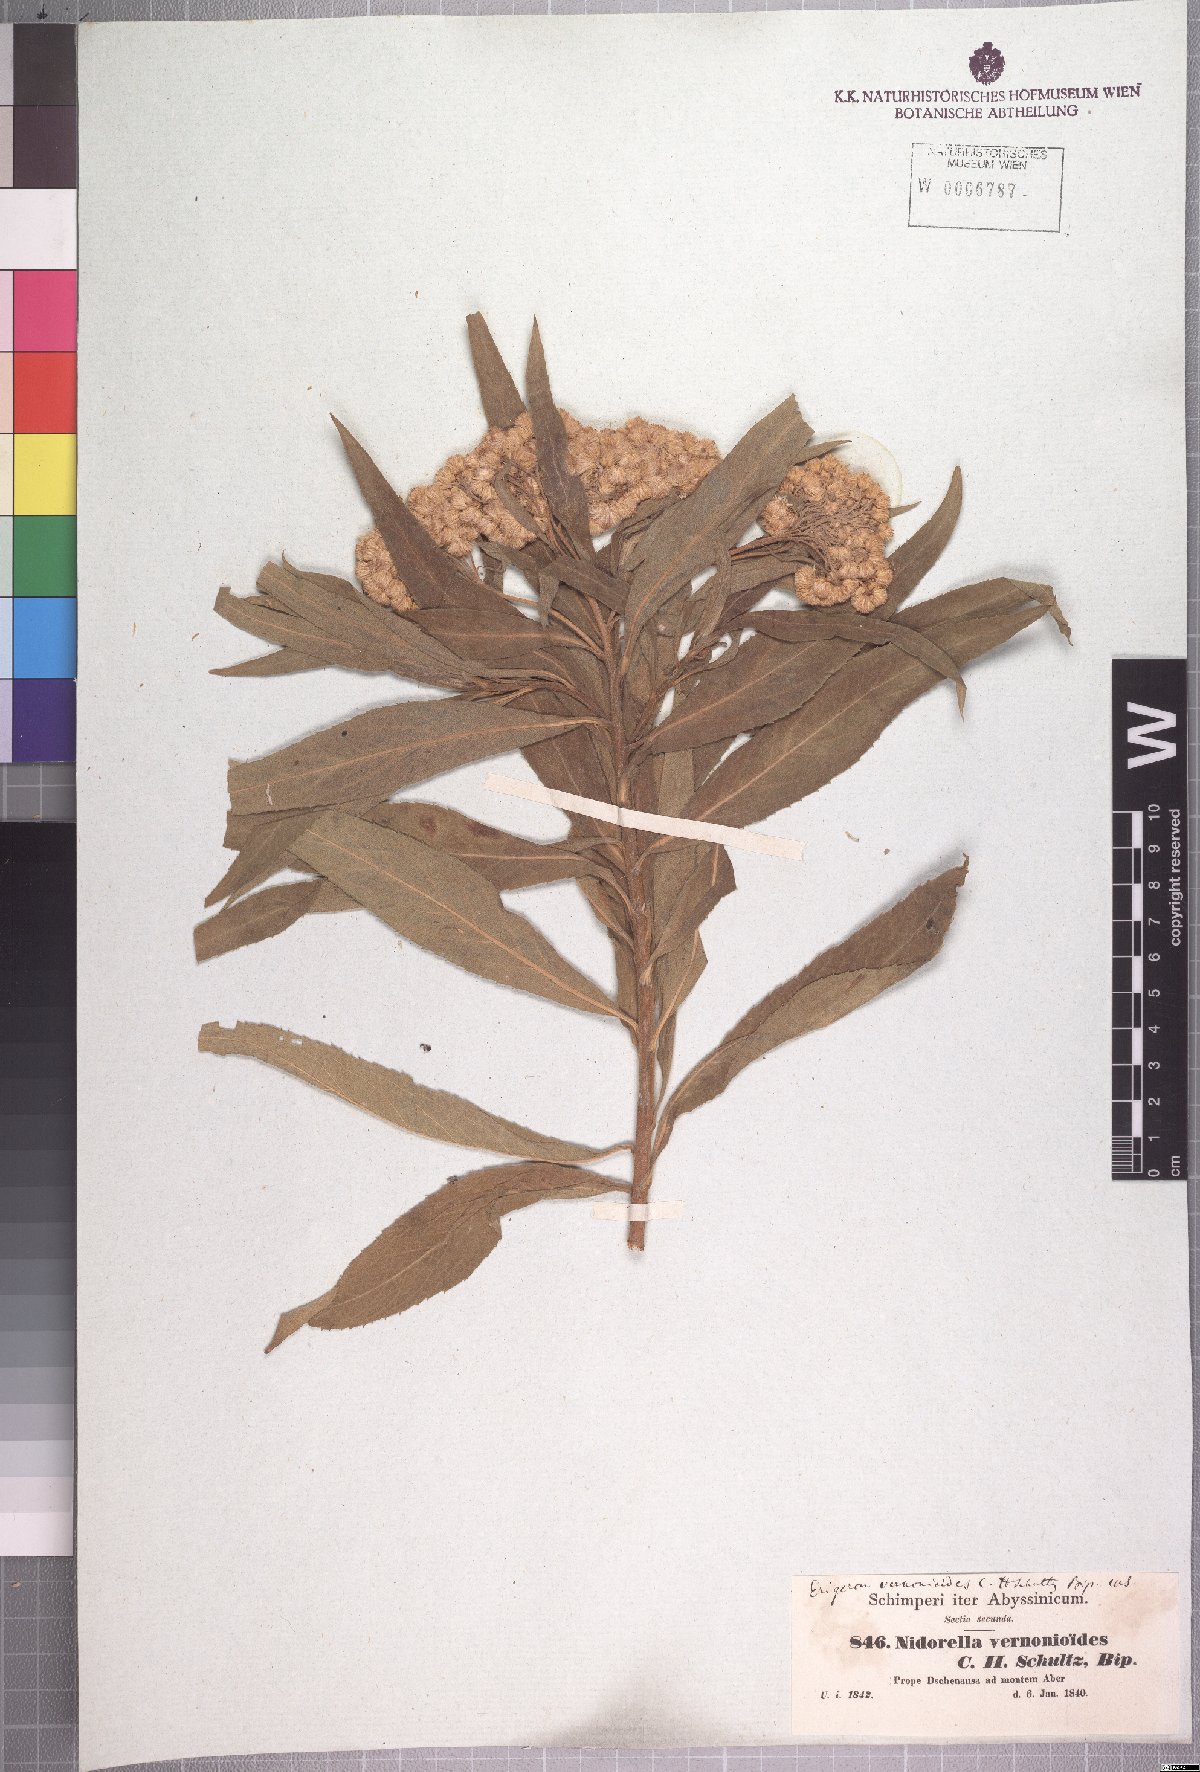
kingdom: Plantae
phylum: Tracheophyta
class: Magnoliopsida
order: Asterales
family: Asteraceae
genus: Nidorella
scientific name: Nidorella vernonioides
